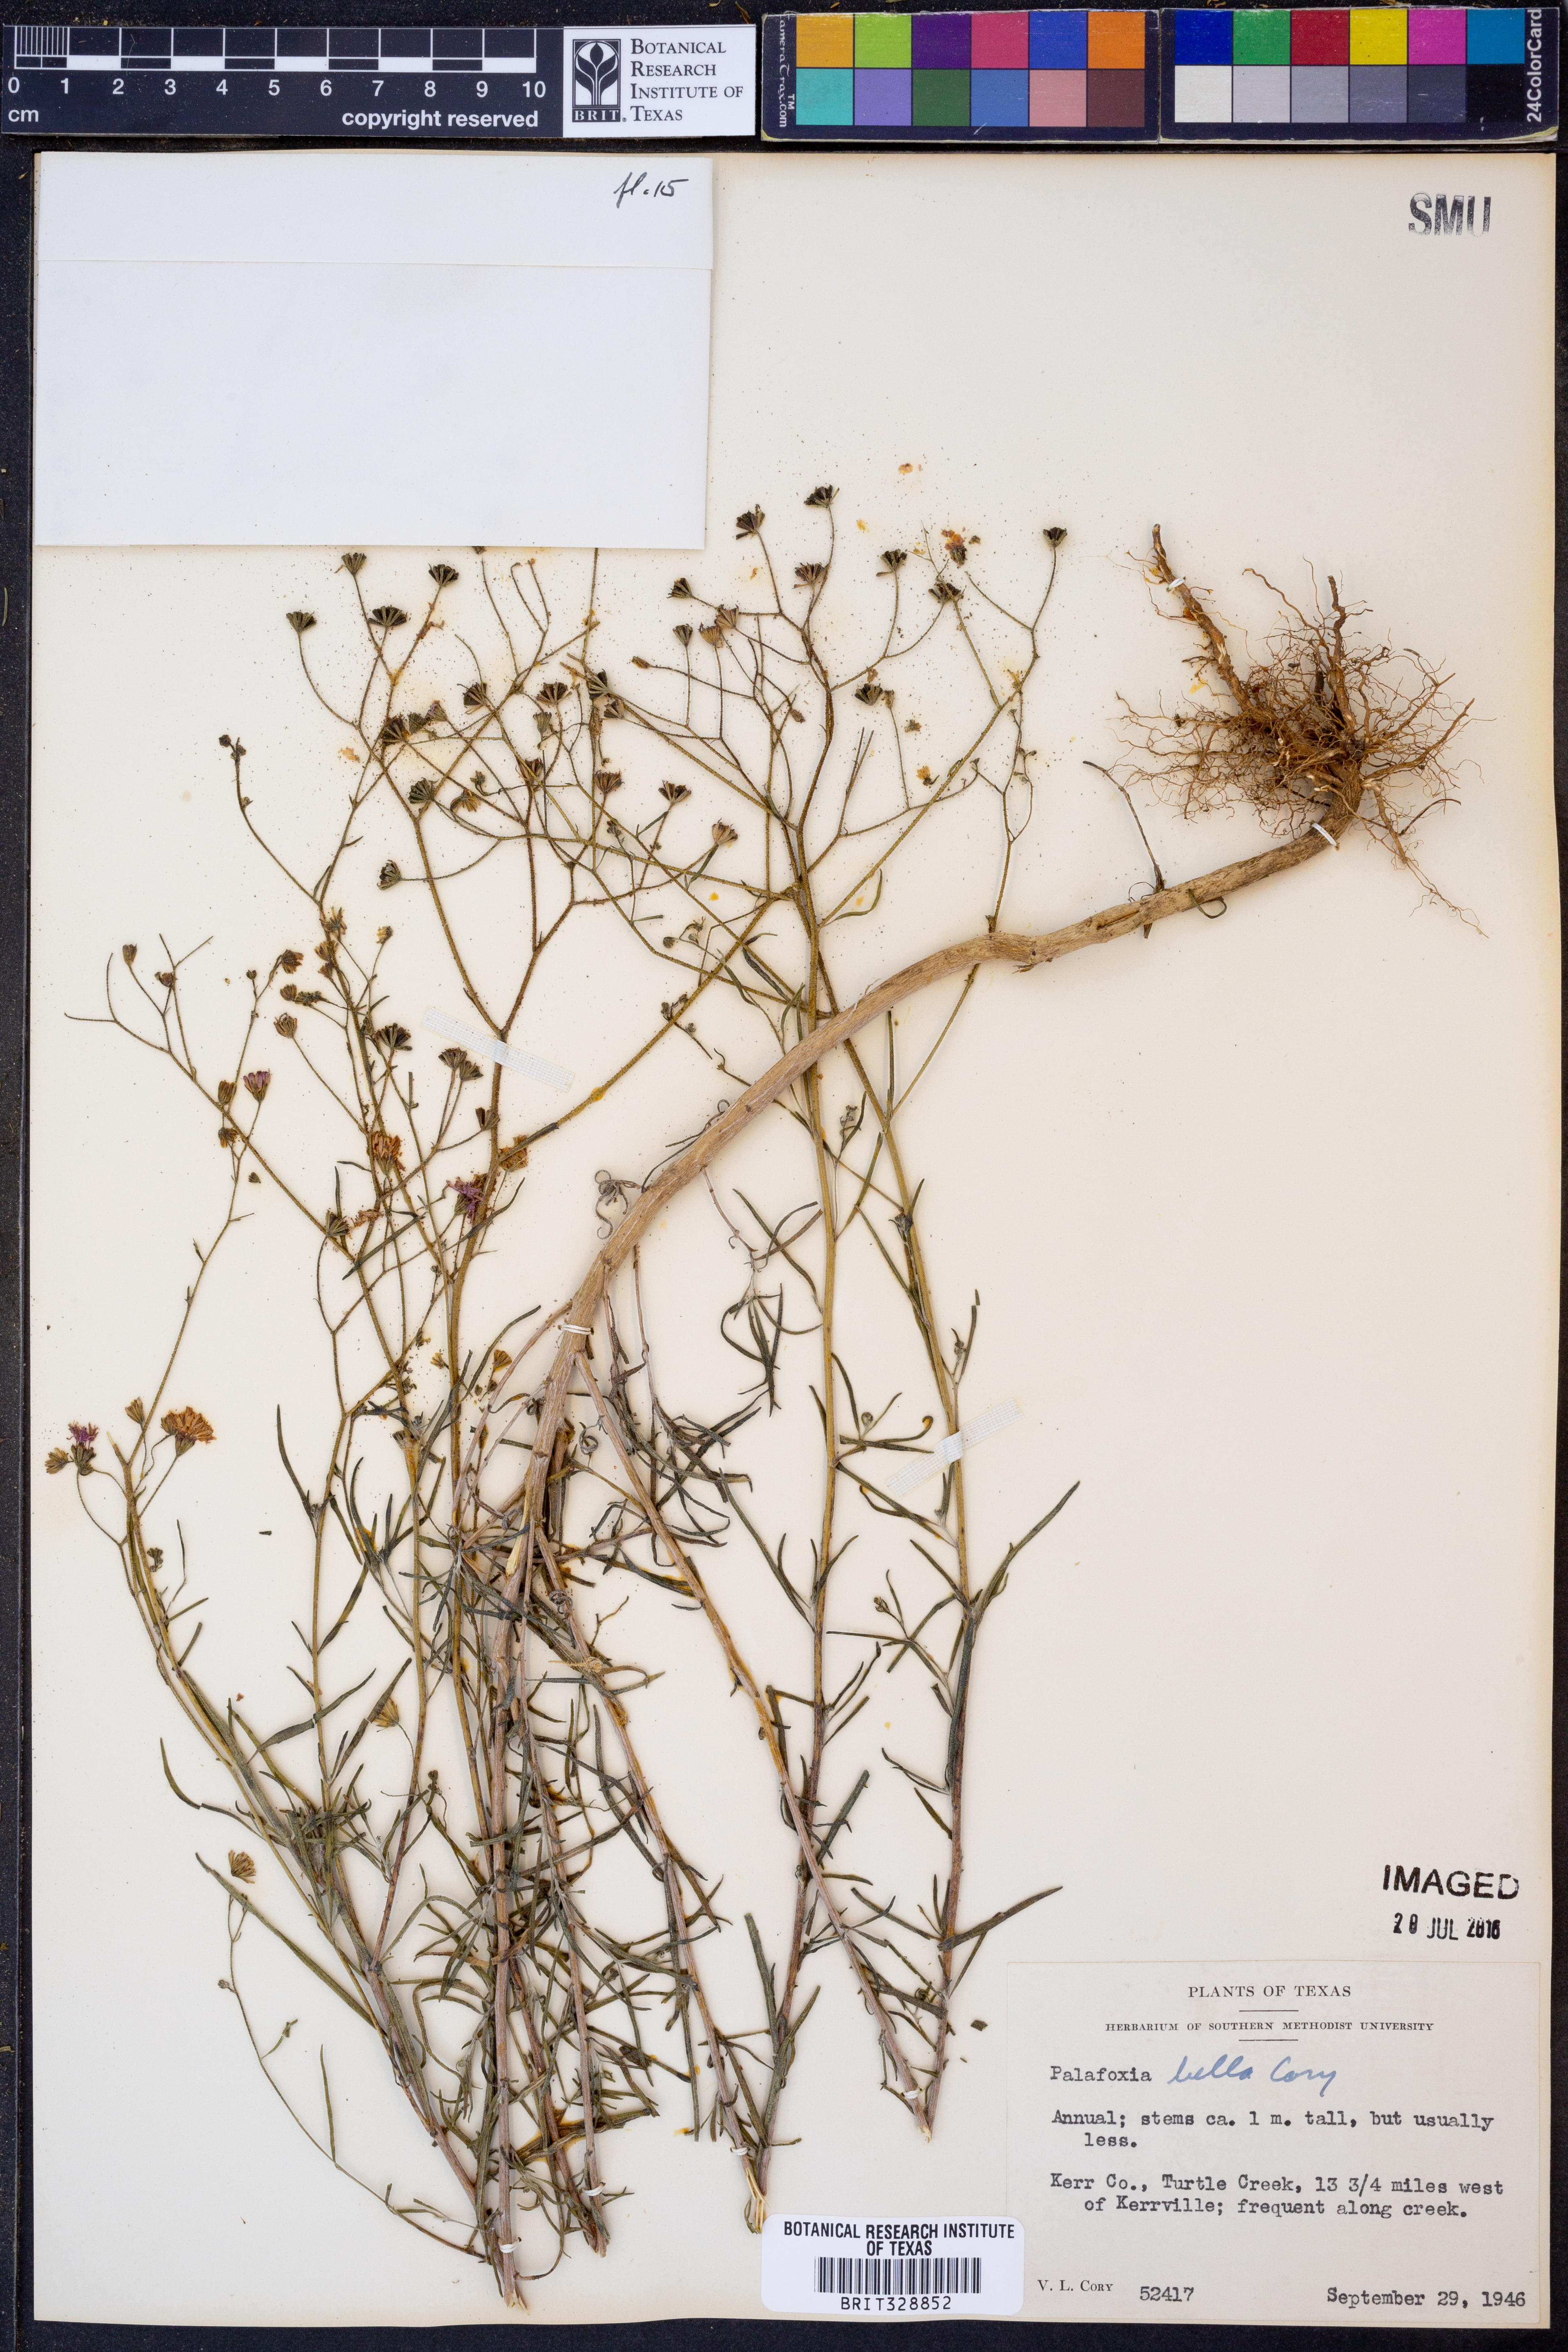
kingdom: Plantae
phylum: Tracheophyta
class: Magnoliopsida
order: Asterales
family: Asteraceae
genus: Palafoxia
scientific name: Palafoxia callosa
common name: Small palafox
